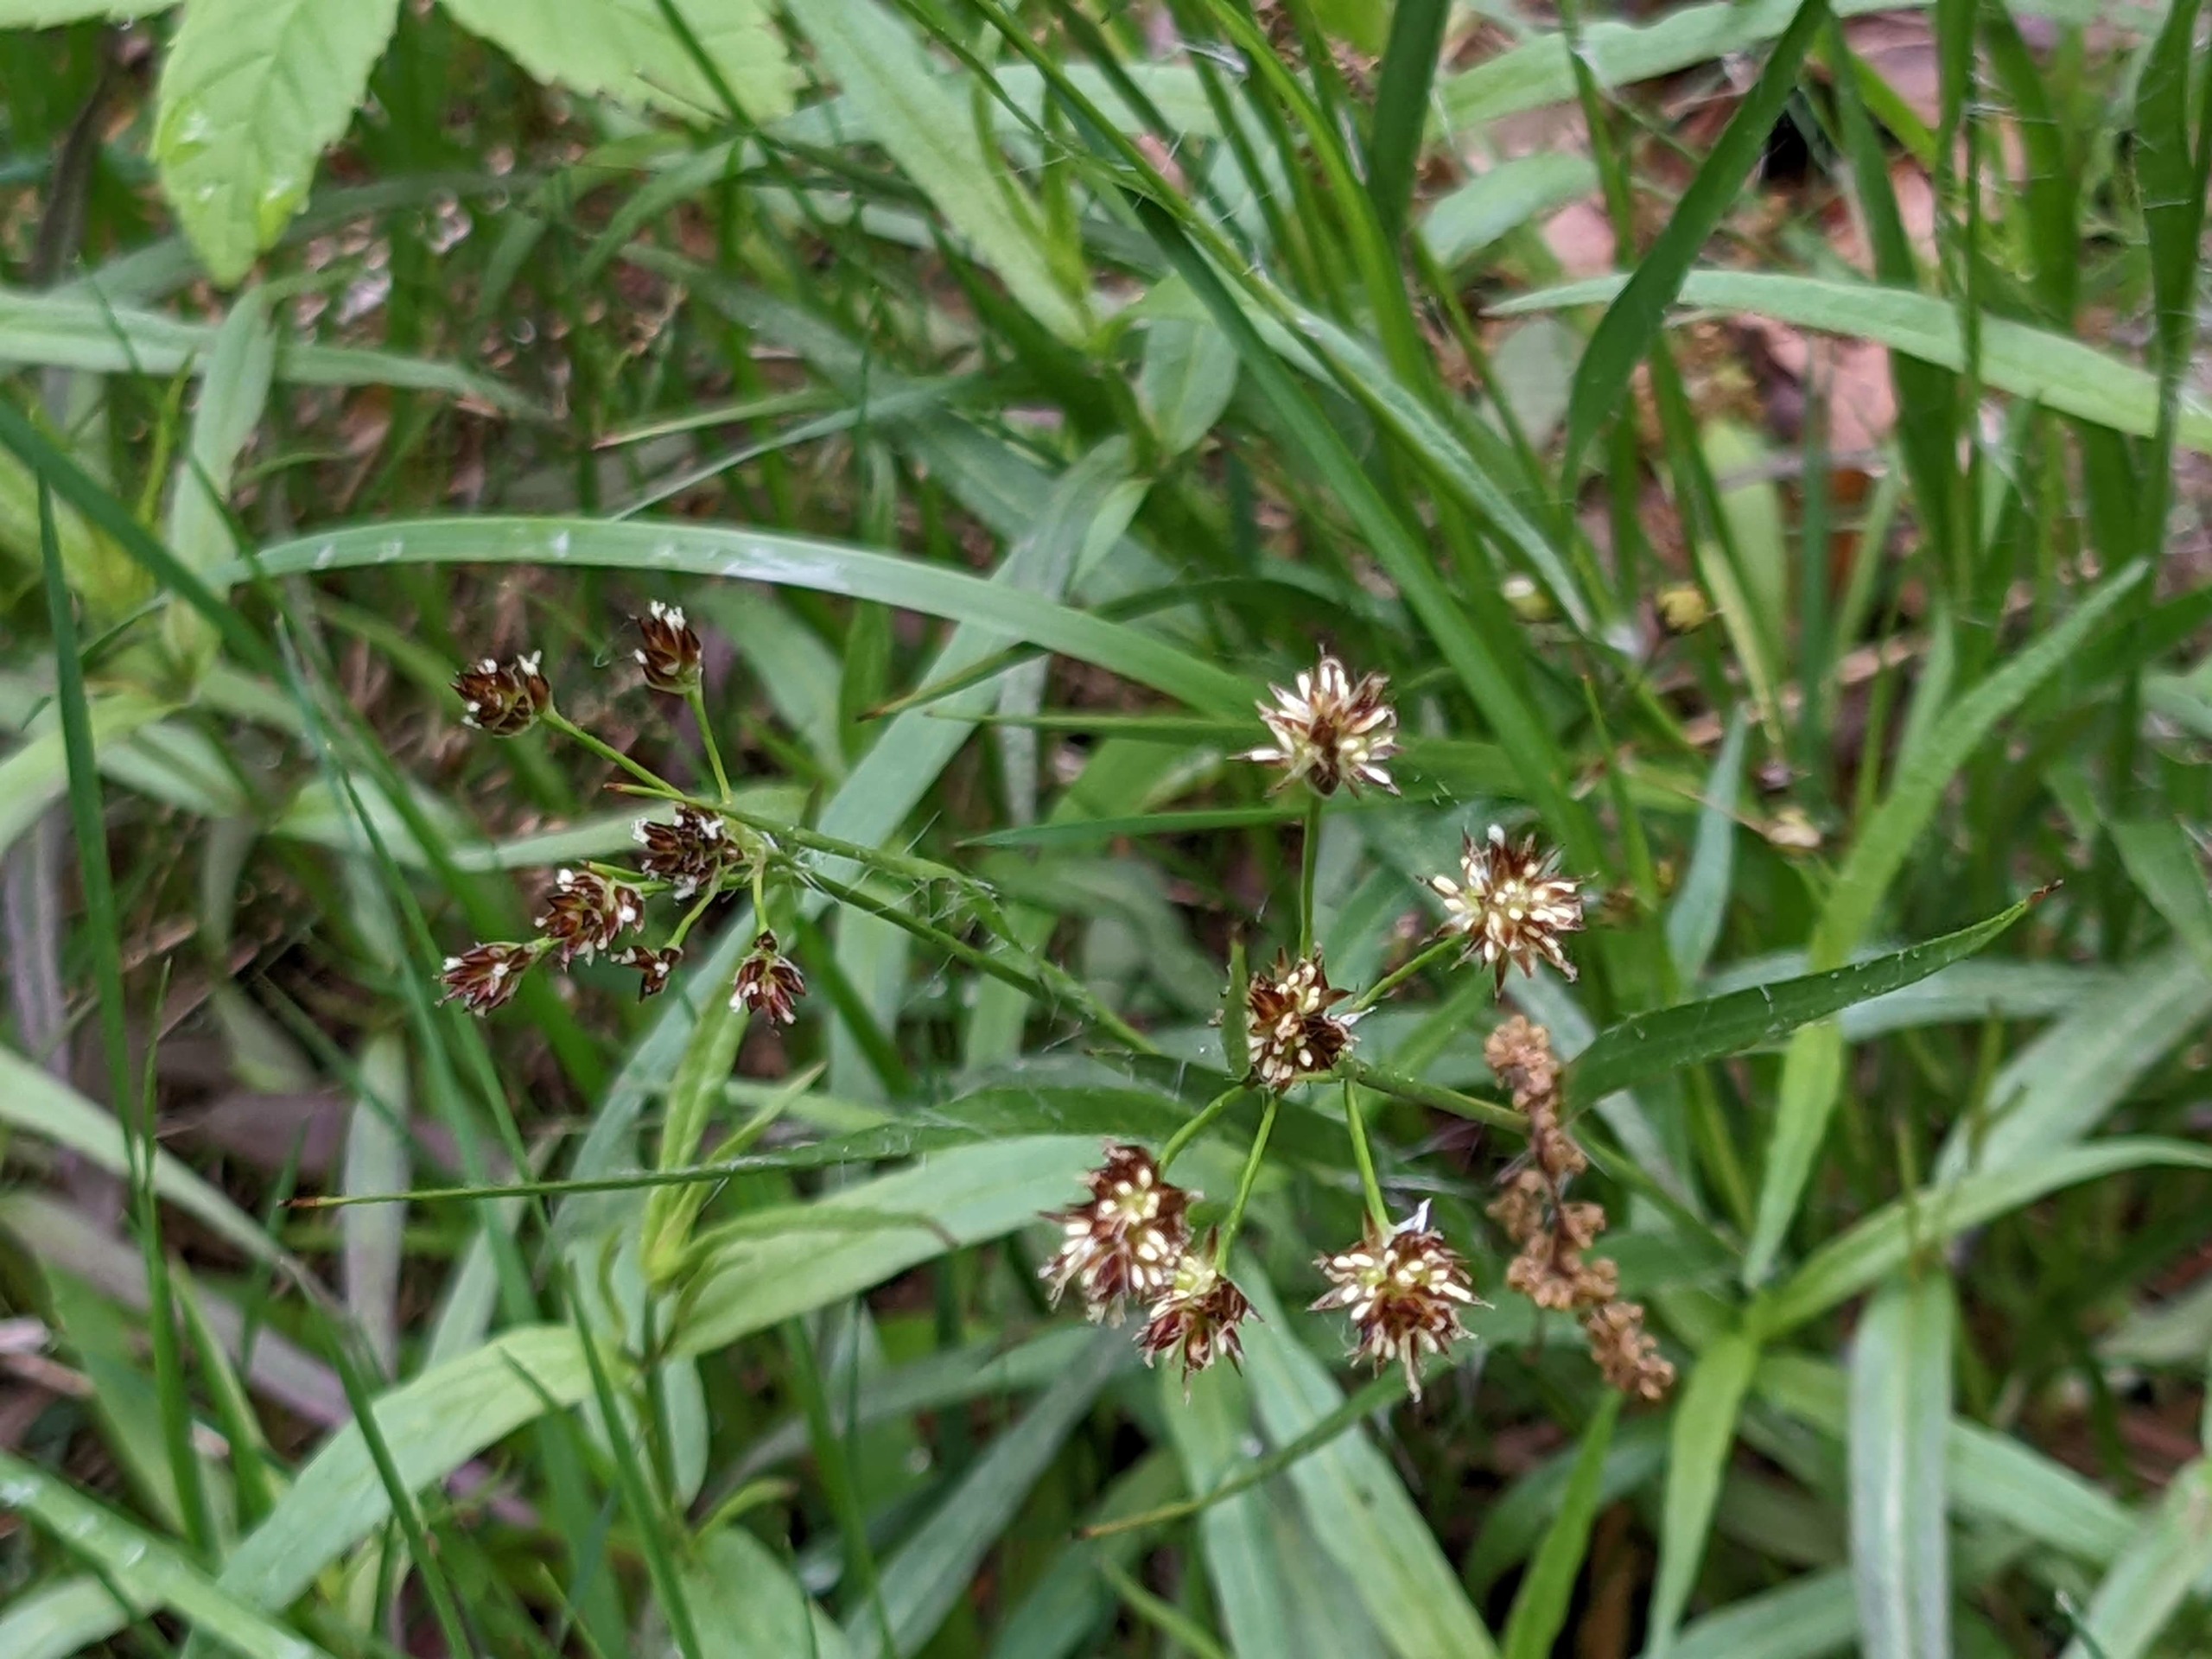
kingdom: Plantae
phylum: Tracheophyta
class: Liliopsida
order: Poales
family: Juncaceae
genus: Luzula
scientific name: Luzula multiflora
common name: Mangeblomstret frytle
